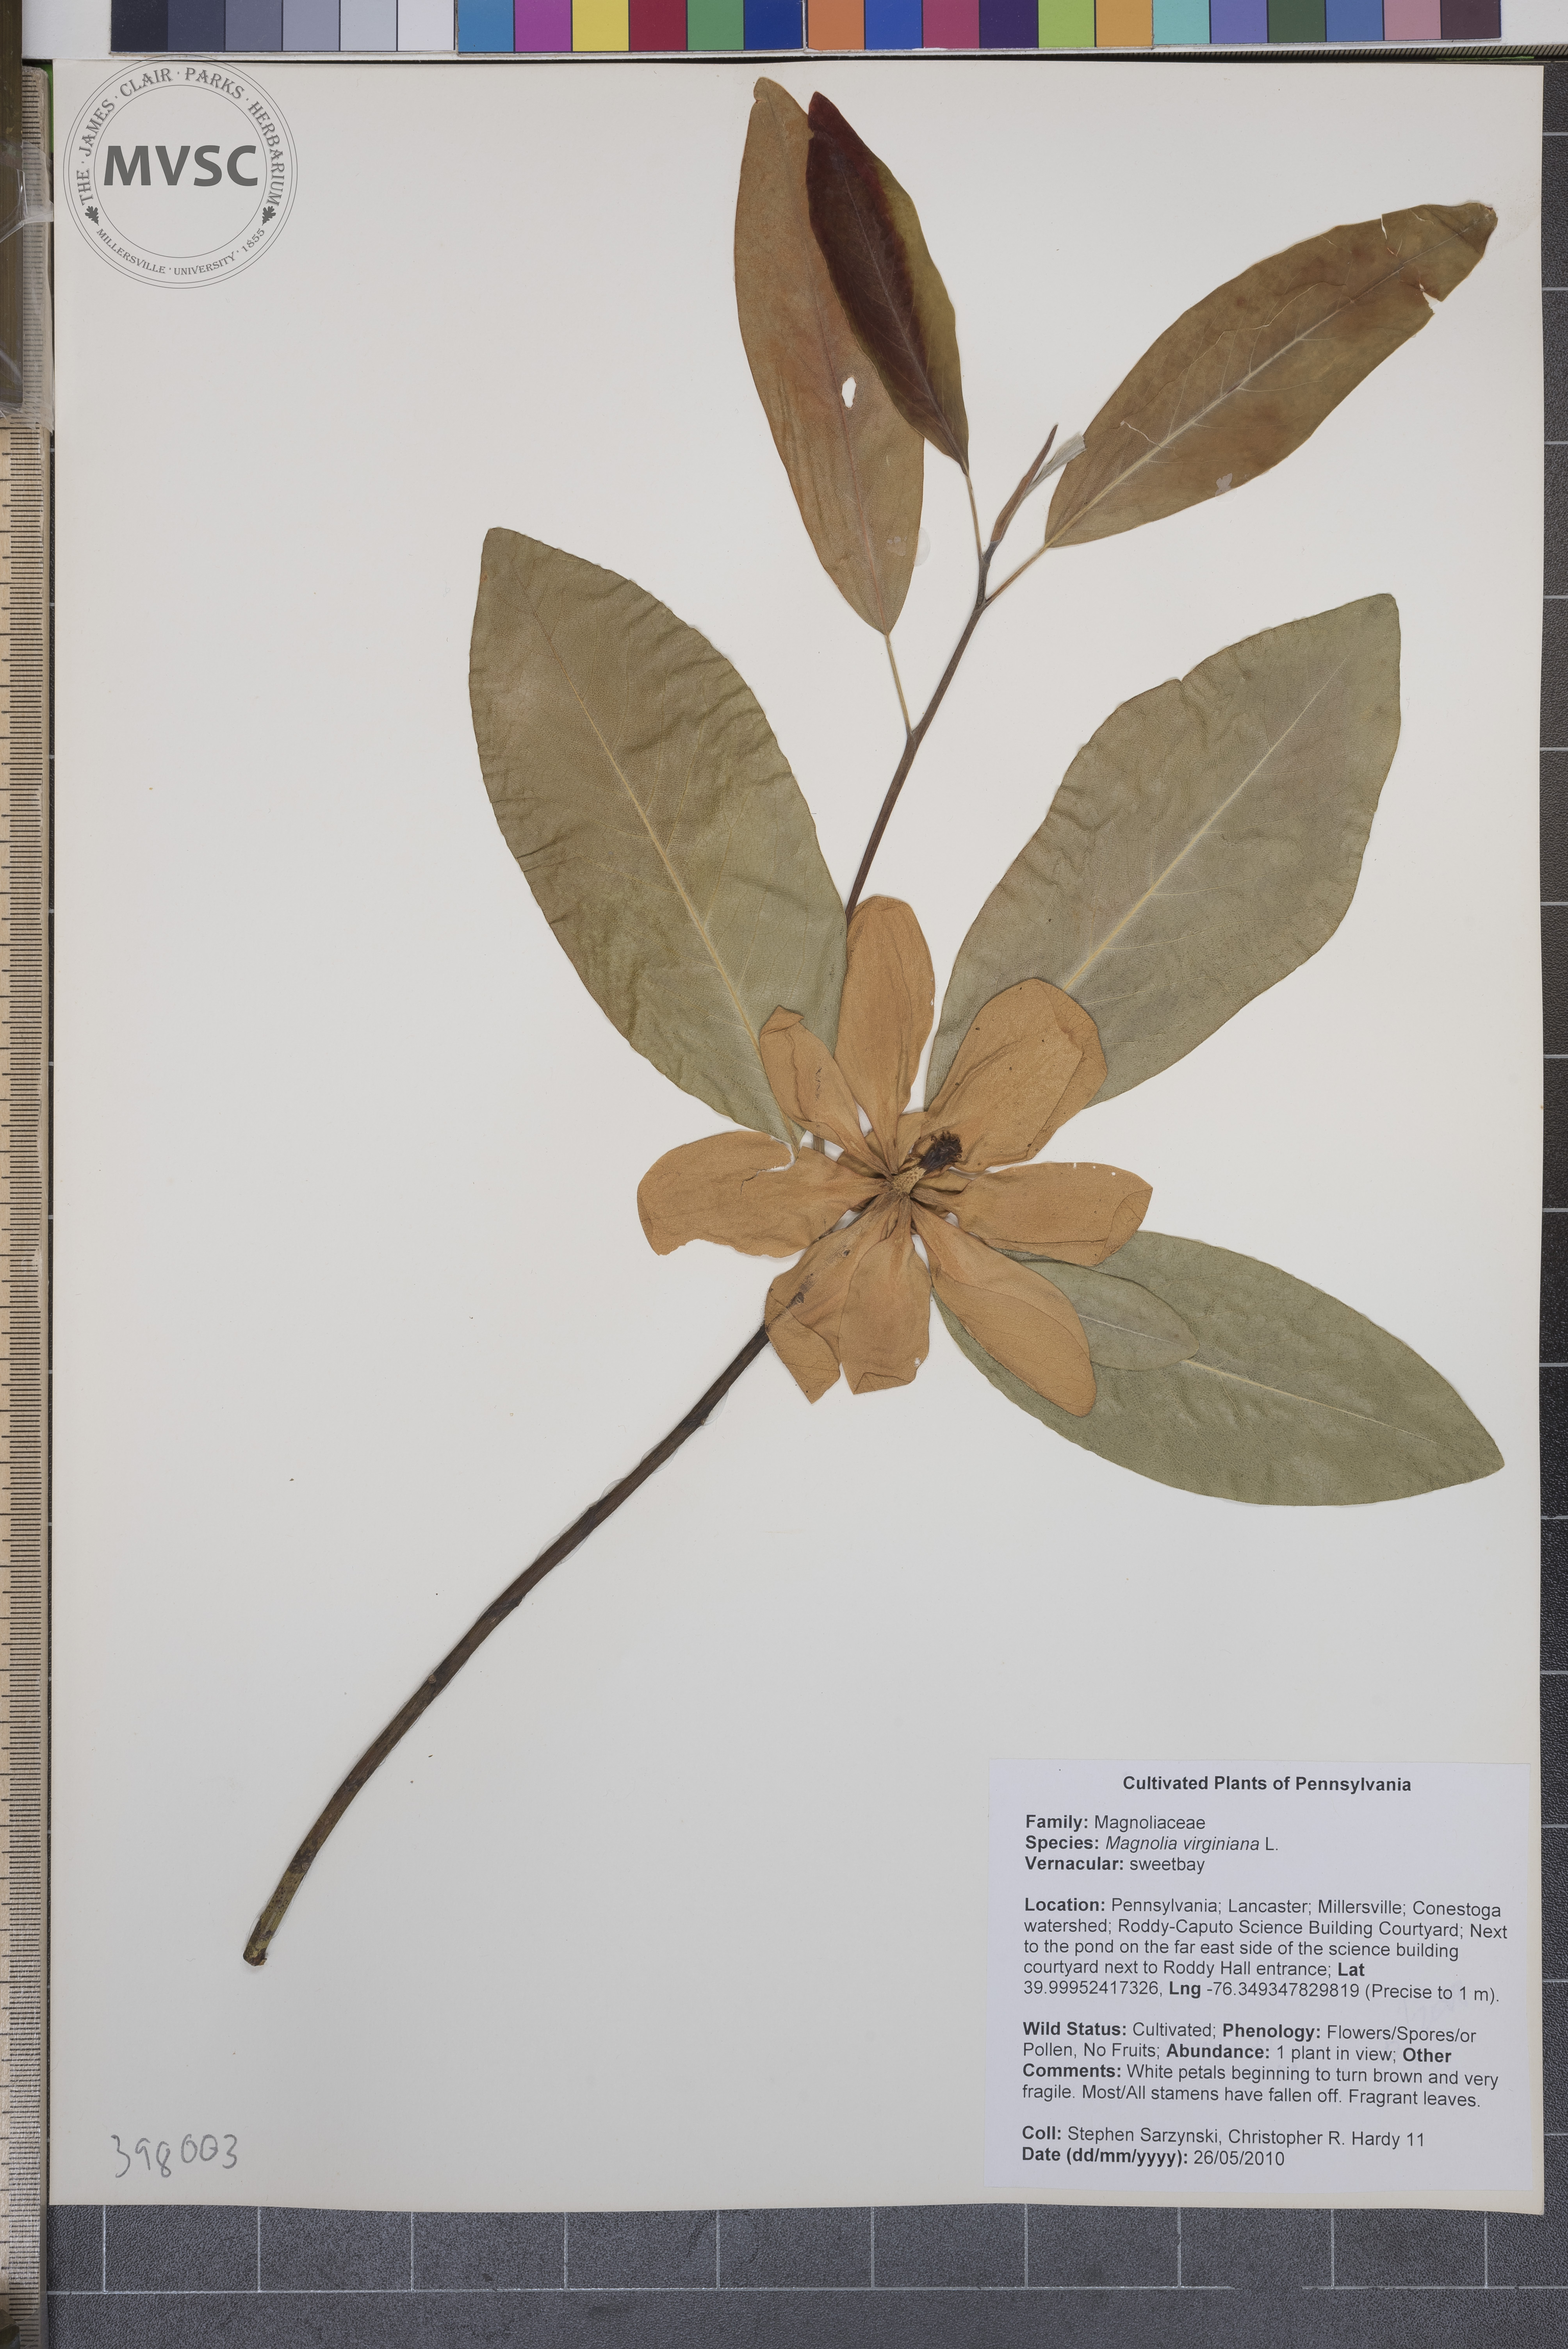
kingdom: Plantae
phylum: Tracheophyta
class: Magnoliopsida
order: Magnoliales
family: Magnoliaceae
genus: Magnolia
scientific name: Magnolia virginiana
